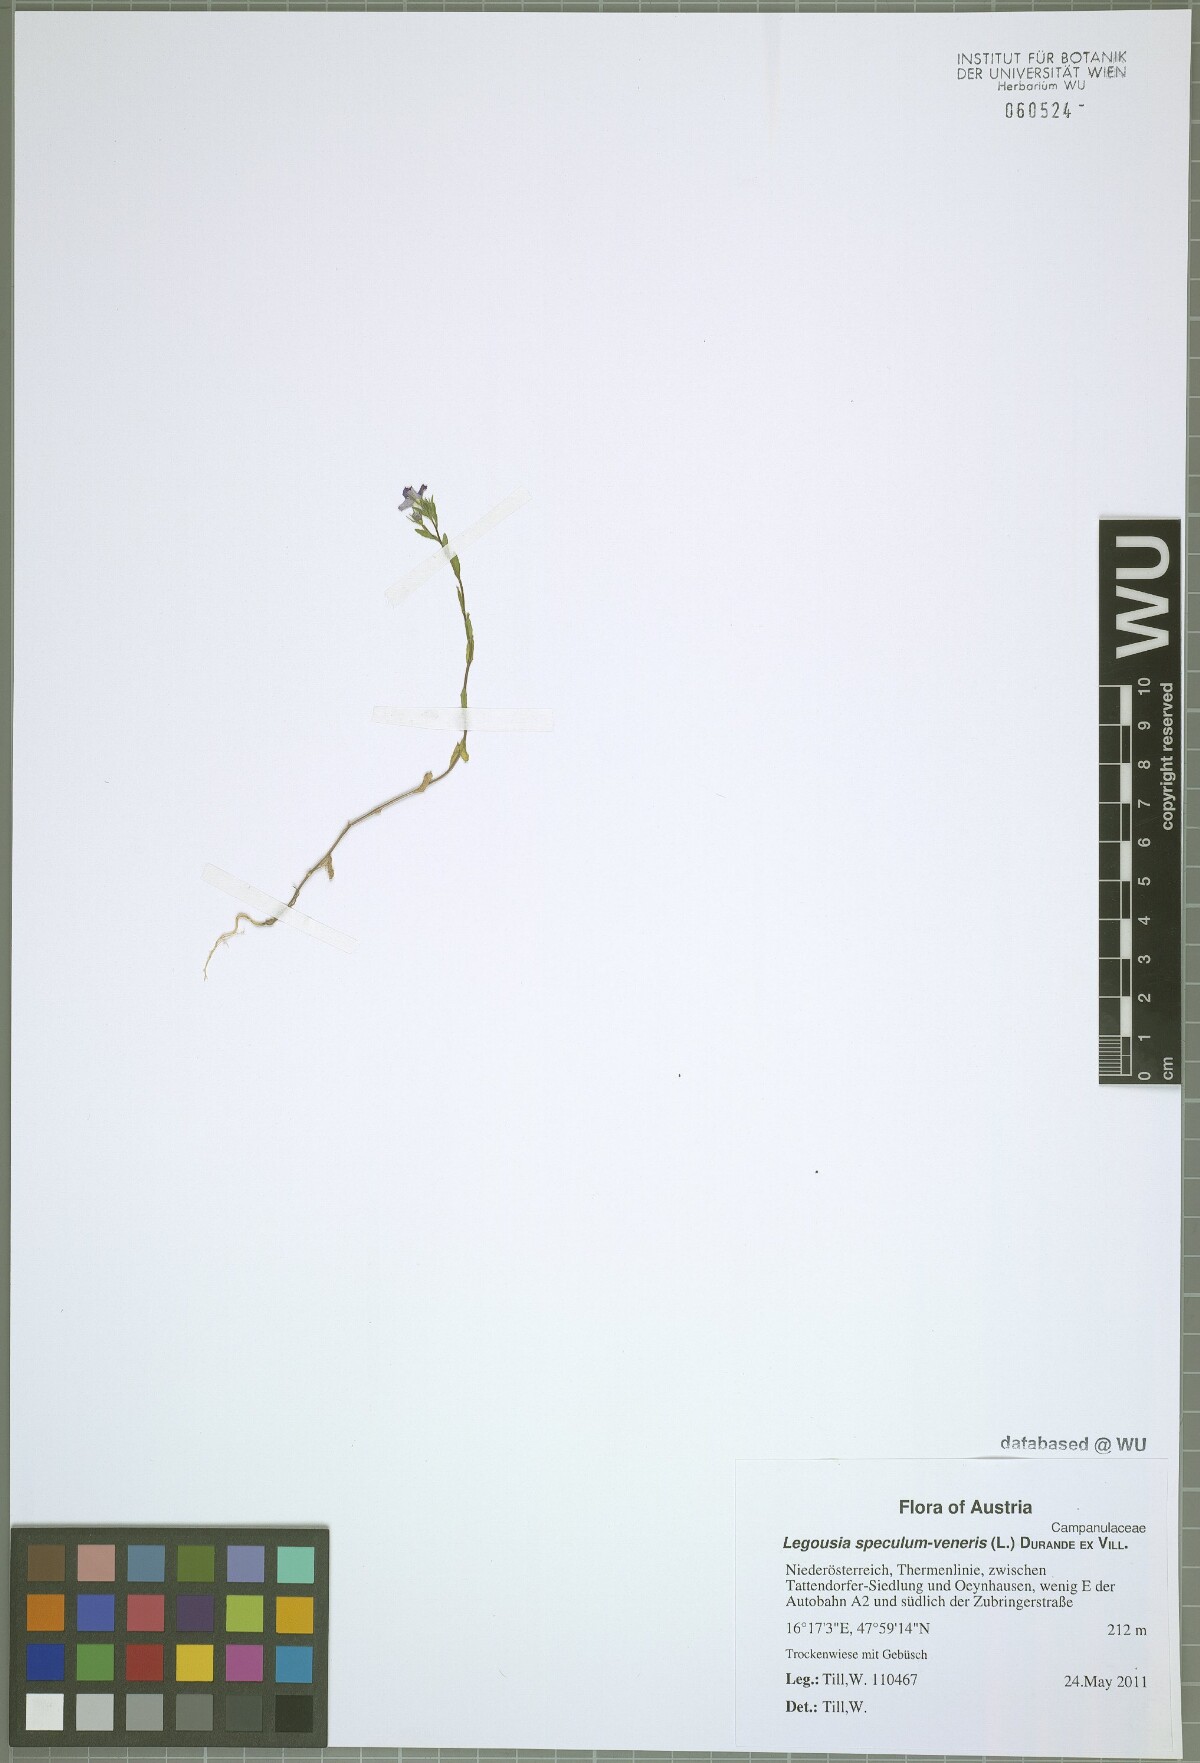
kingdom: Plantae
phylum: Tracheophyta
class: Magnoliopsida
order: Asterales
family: Campanulaceae
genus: Legousia
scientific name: Legousia speculum-veneris
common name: Large venus's-looking-glass
